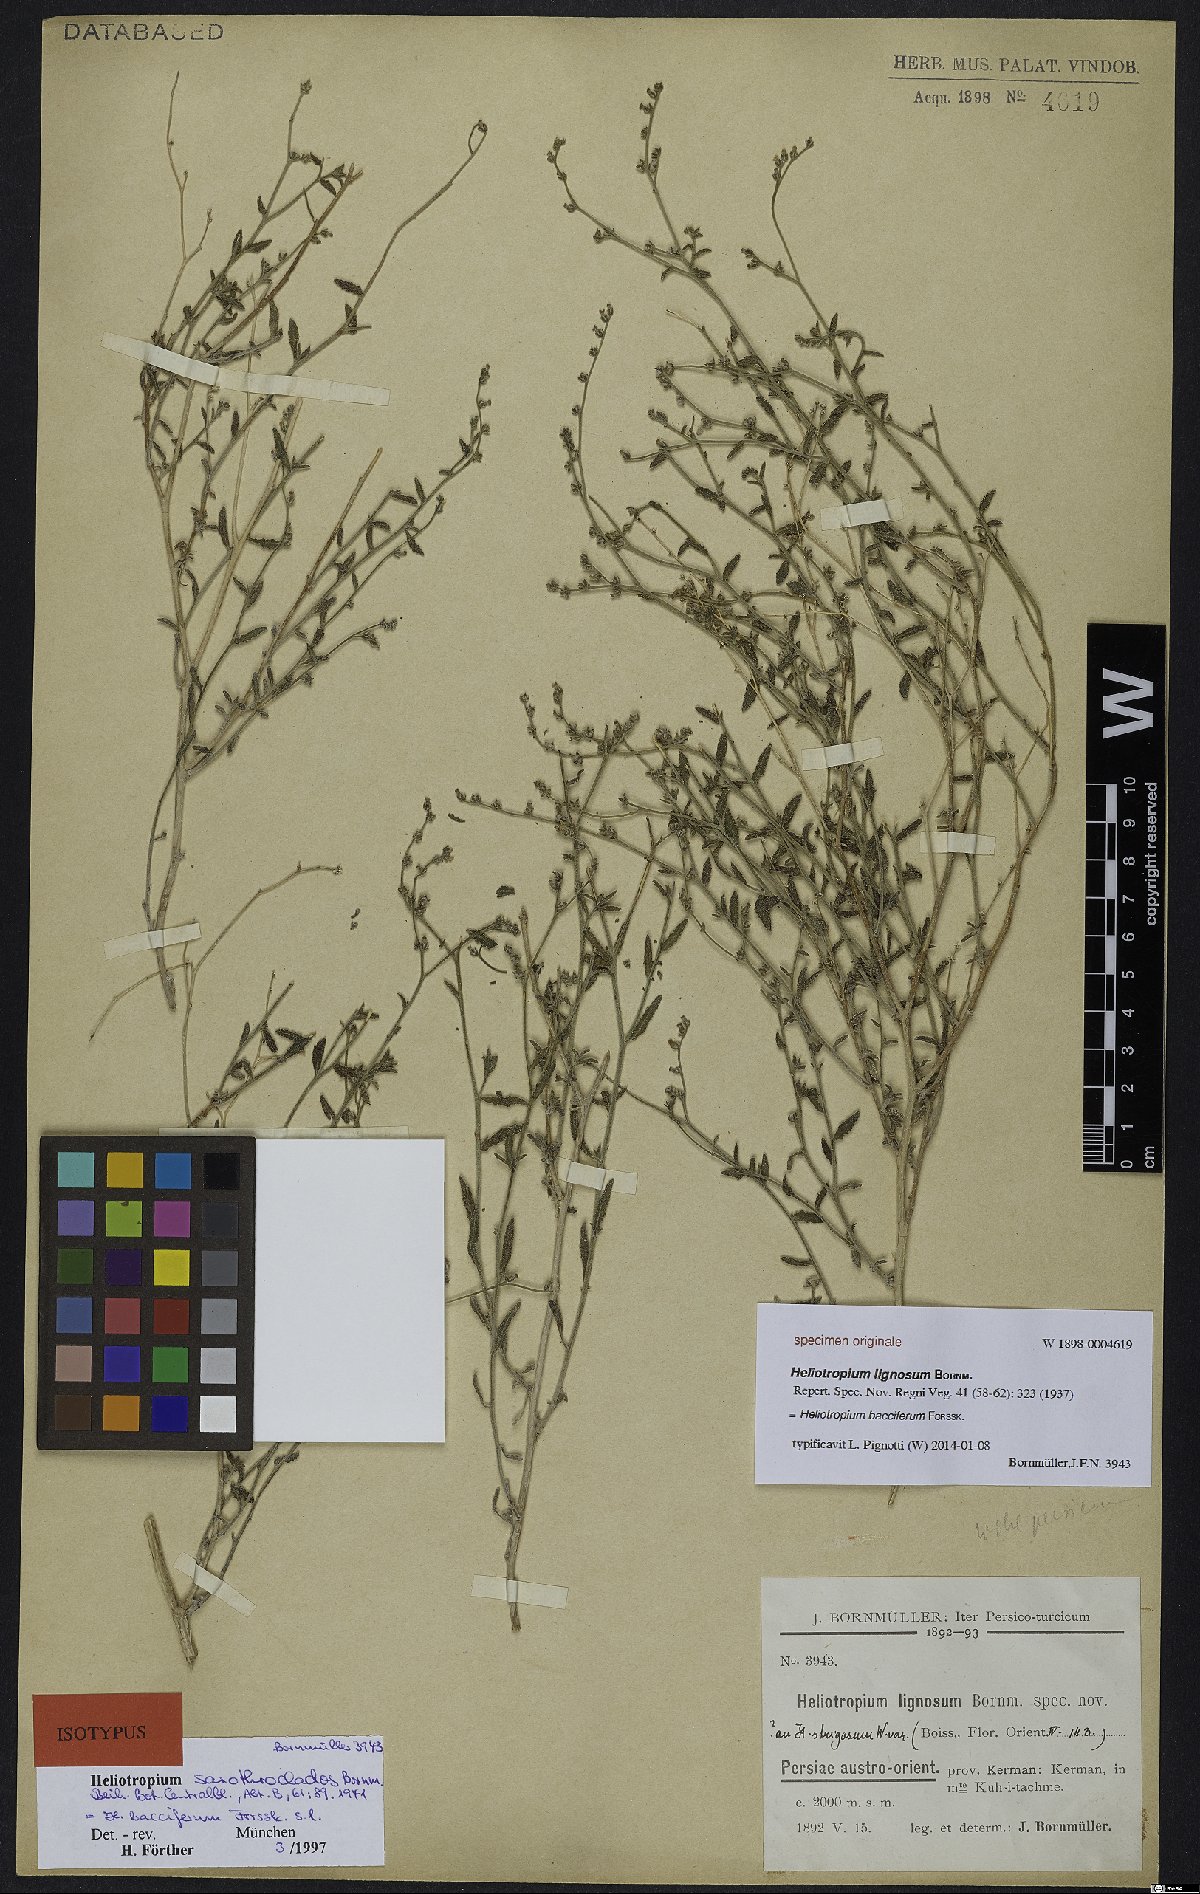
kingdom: Plantae
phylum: Tracheophyta
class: Magnoliopsida
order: Boraginales
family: Heliotropiaceae
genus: Heliotropium
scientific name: Heliotropium bacciferum
